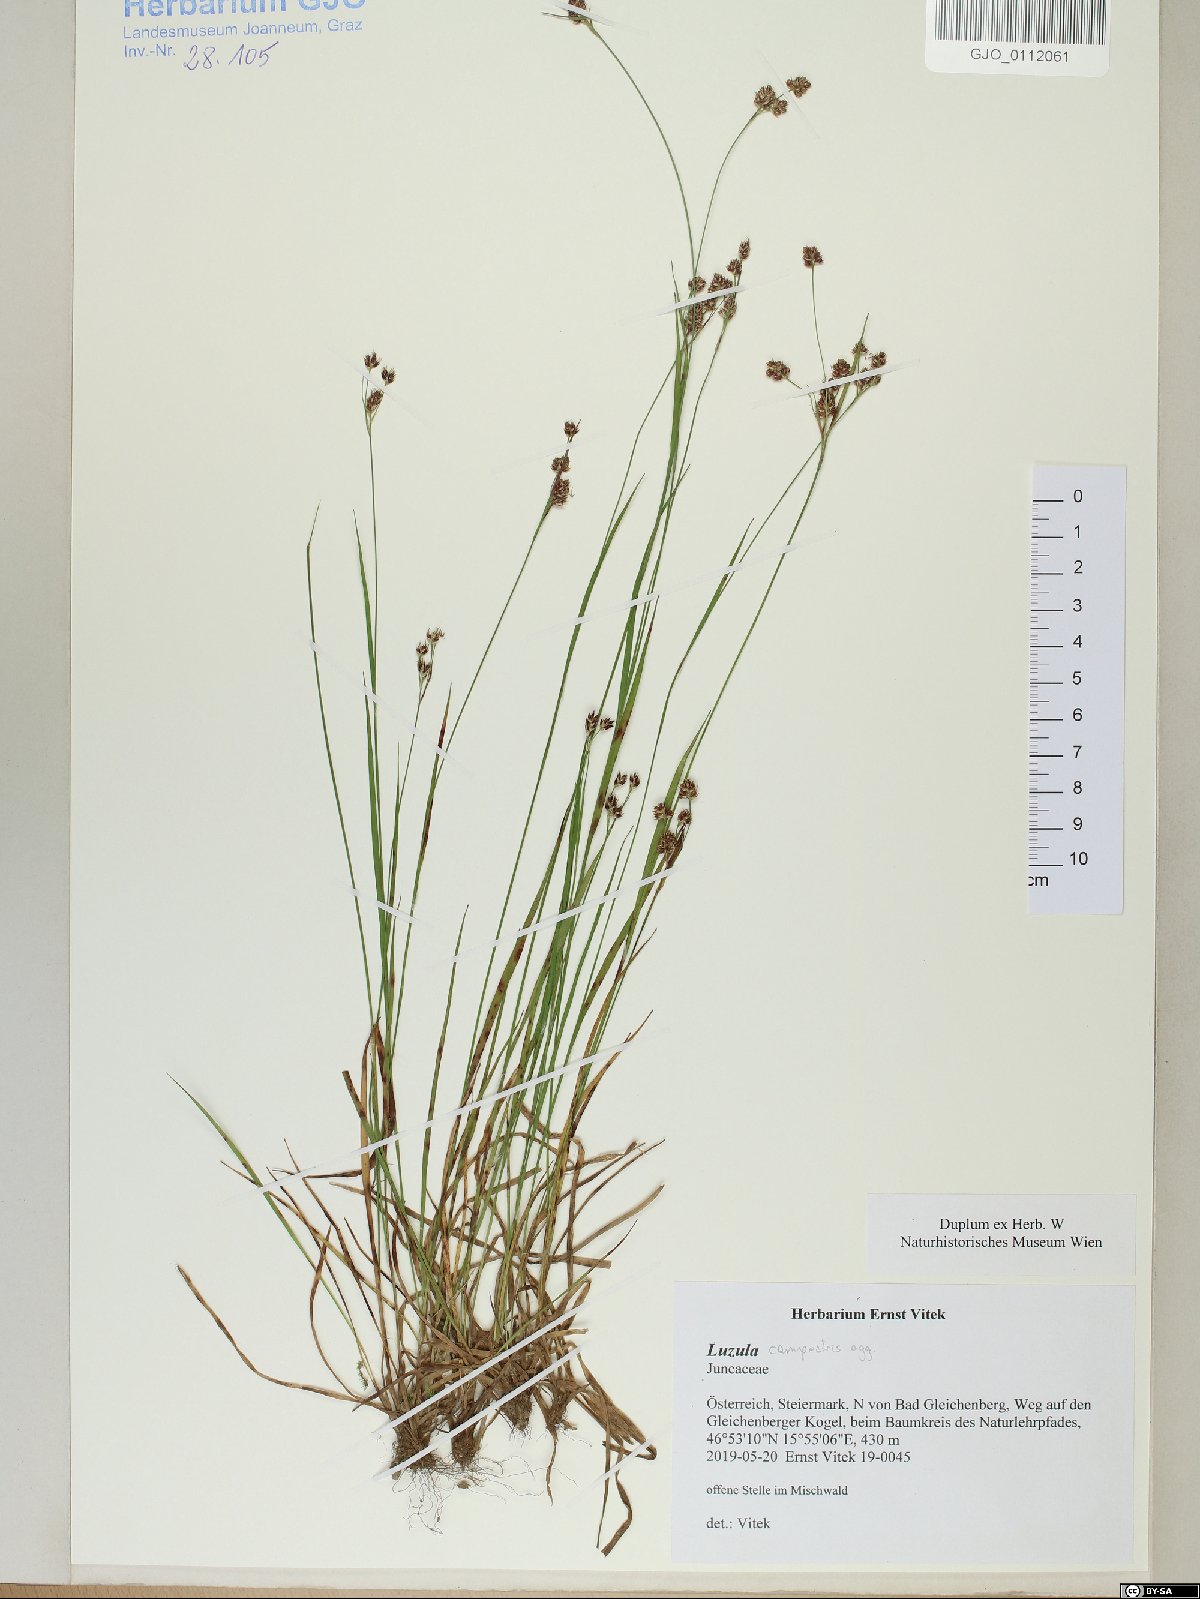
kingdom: Plantae
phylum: Tracheophyta
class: Liliopsida
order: Poales
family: Juncaceae
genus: Luzula
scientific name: Luzula campestris
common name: Field wood-rush
